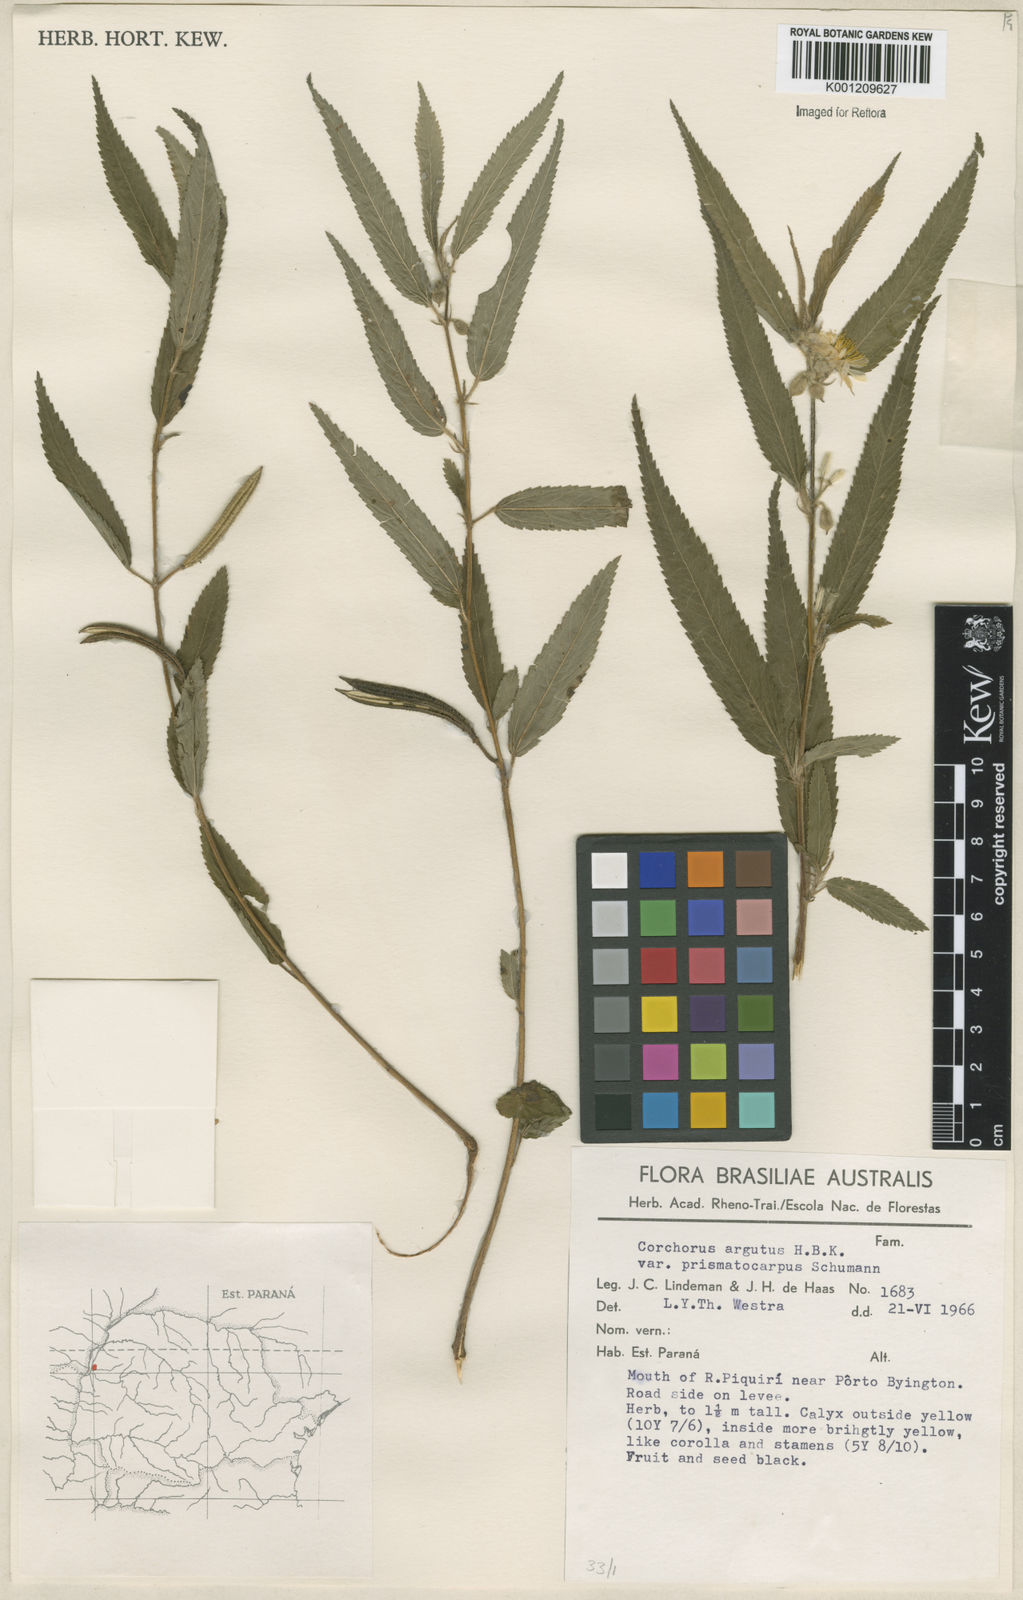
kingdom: Plantae
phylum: Tracheophyta
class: Magnoliopsida
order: Malvales
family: Malvaceae
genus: Corchorus
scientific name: Corchorus argutus
